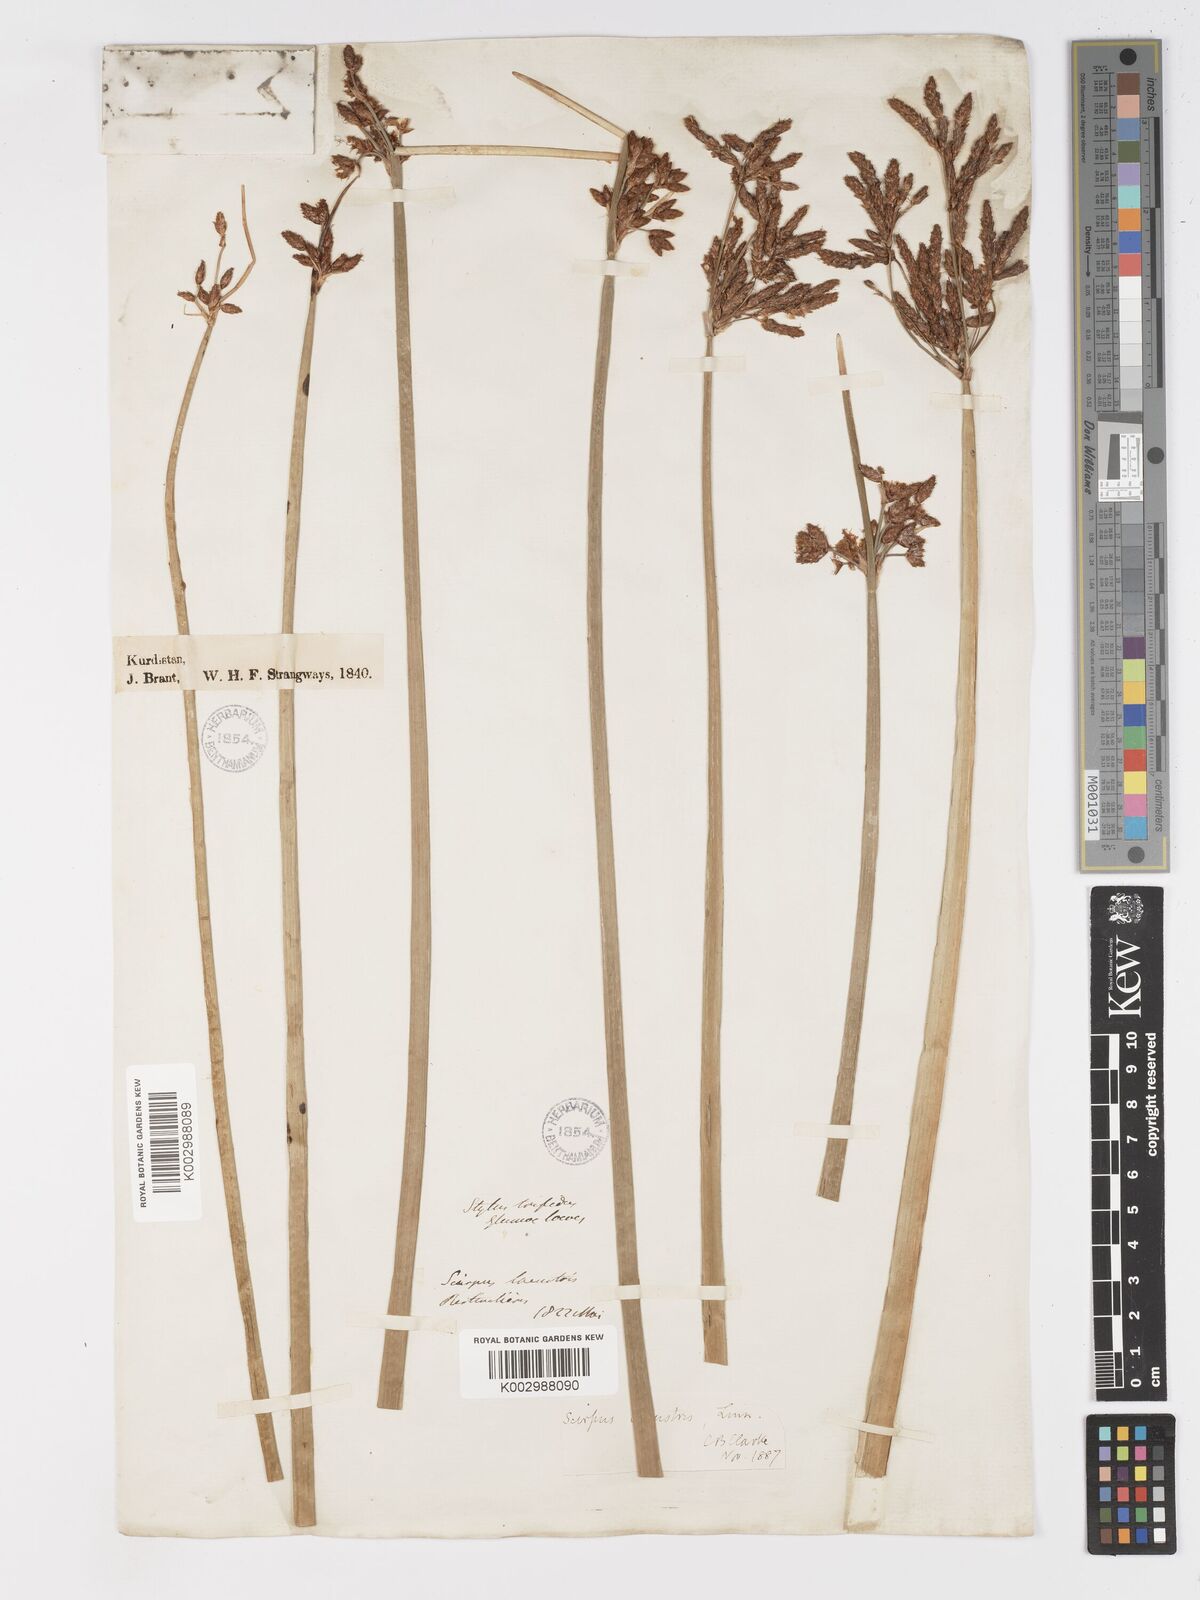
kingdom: Plantae
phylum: Tracheophyta
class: Liliopsida
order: Poales
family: Cyperaceae
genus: Schoenoplectus
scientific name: Schoenoplectus lacustris
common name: Common club-rush
